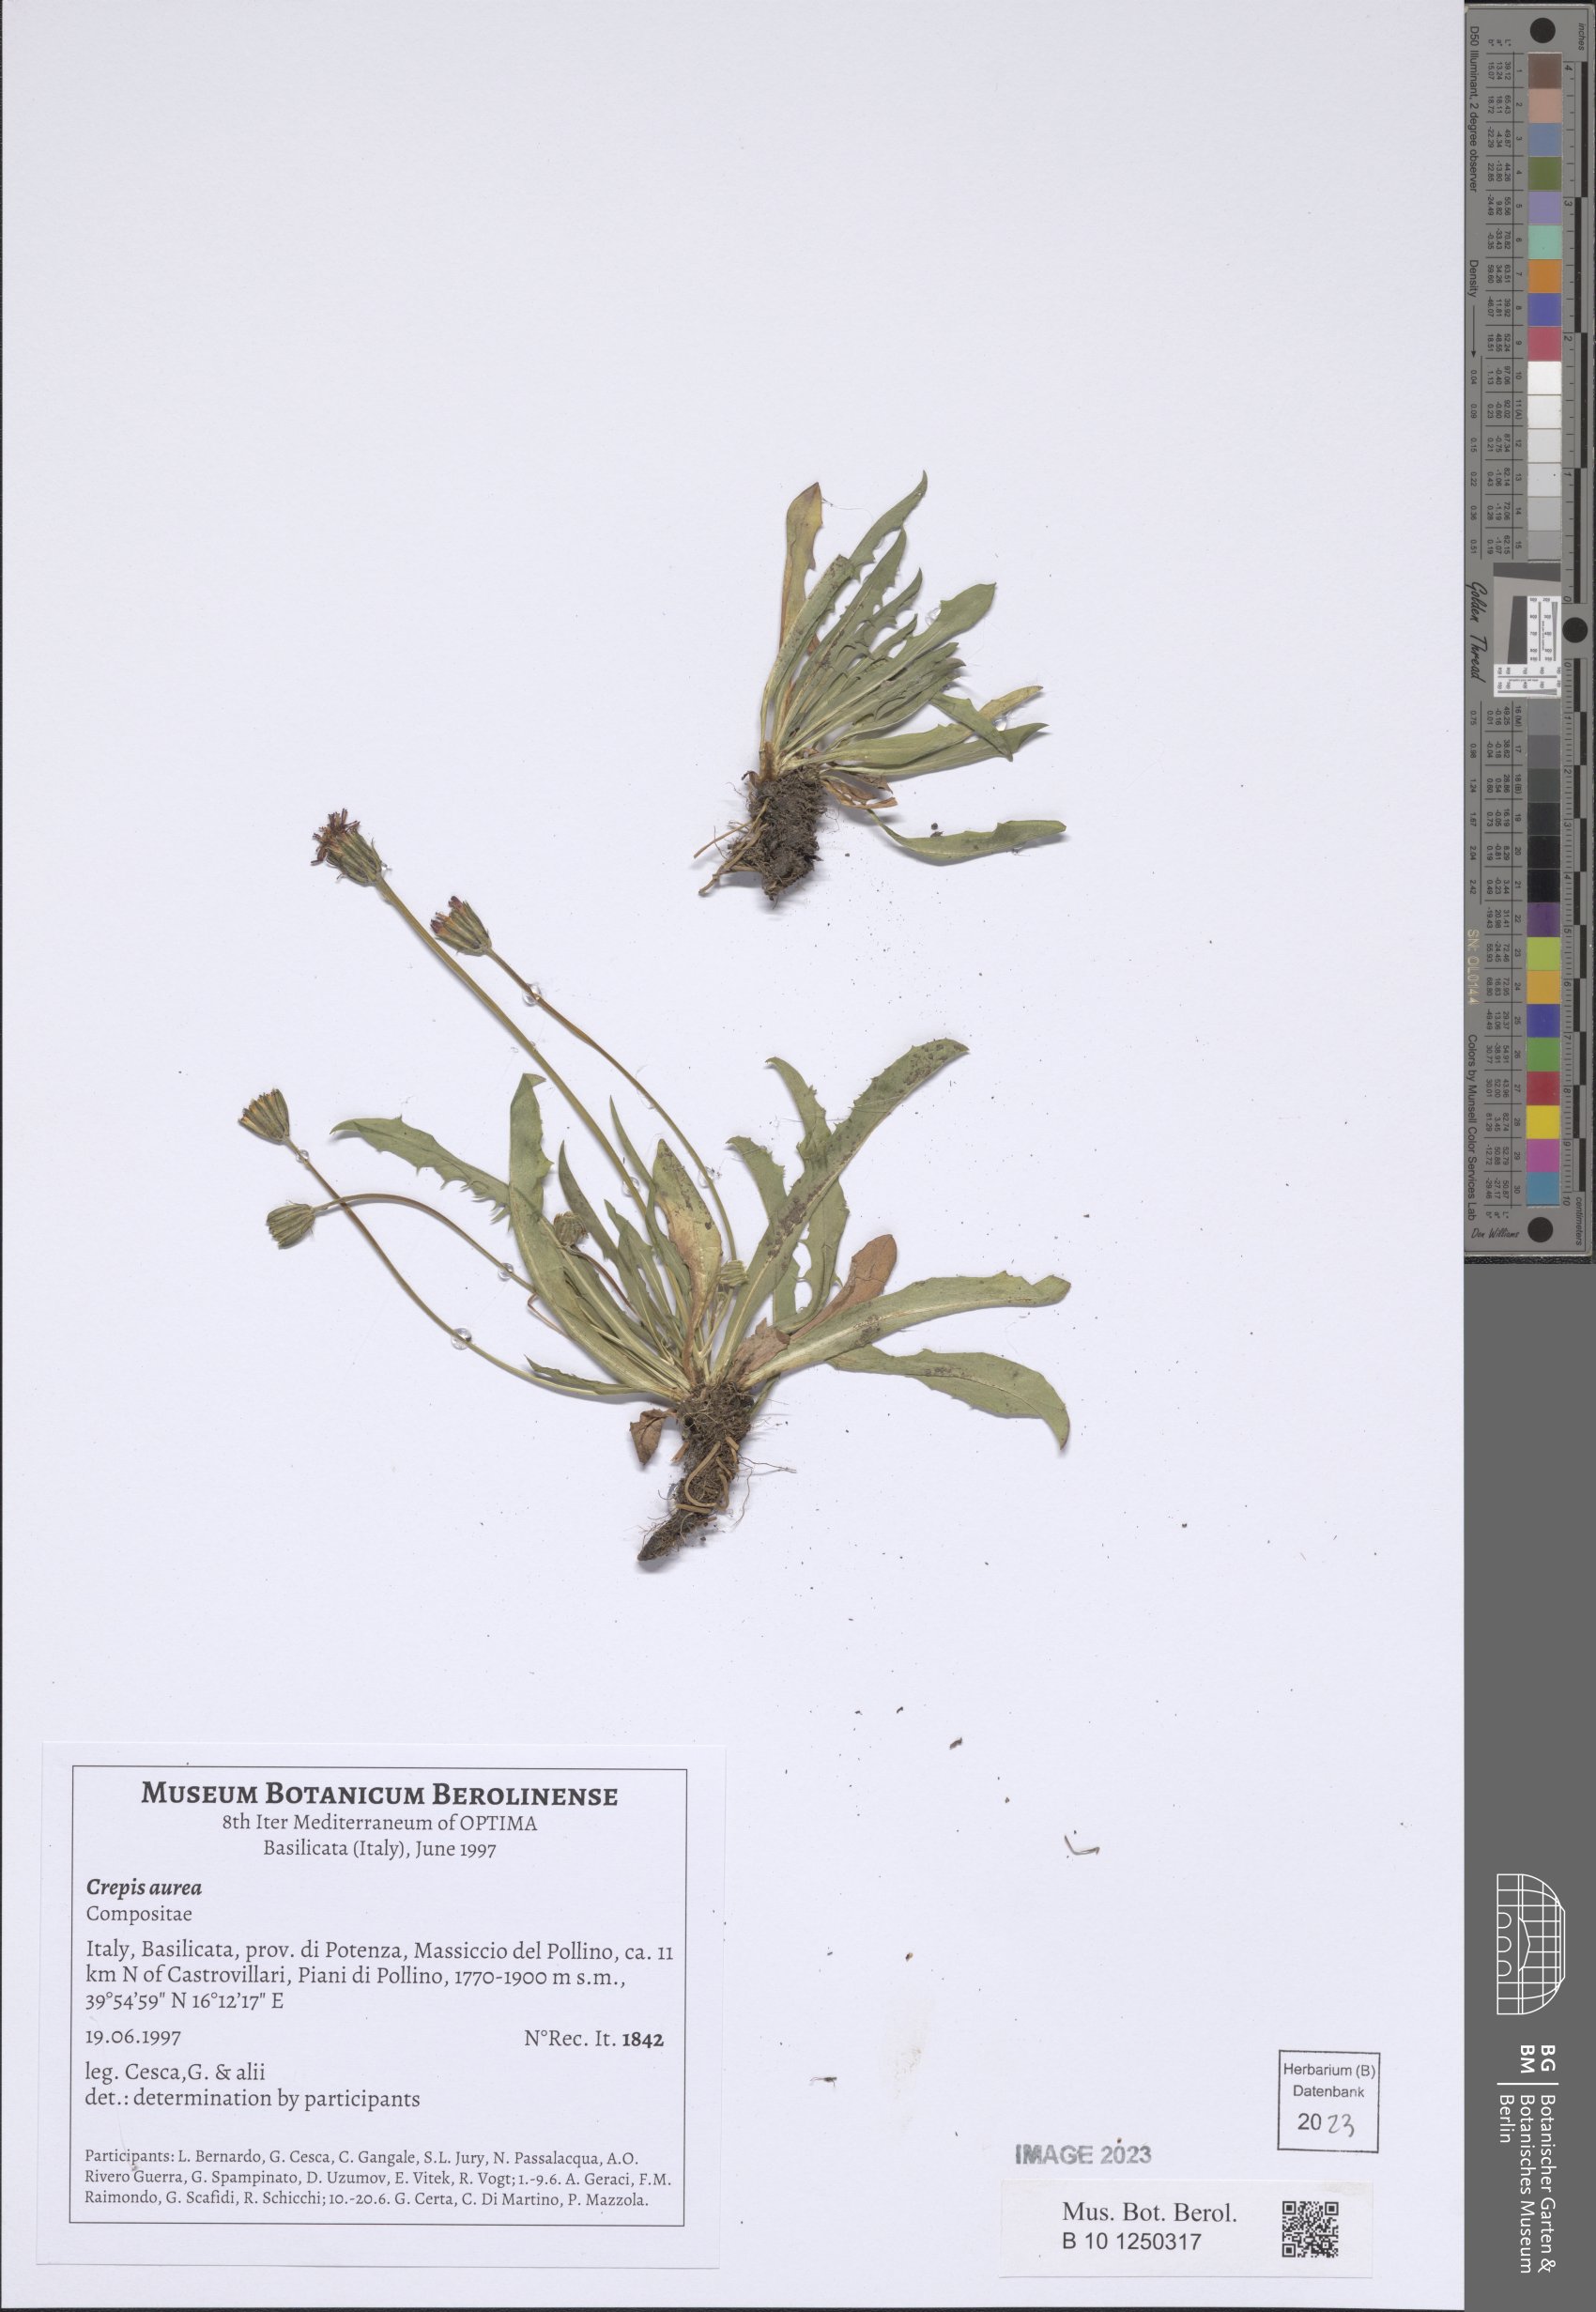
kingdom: Plantae
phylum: Tracheophyta
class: Magnoliopsida
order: Asterales
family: Asteraceae
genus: Crepis
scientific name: Crepis aurea
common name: Golden hawk's-beard
